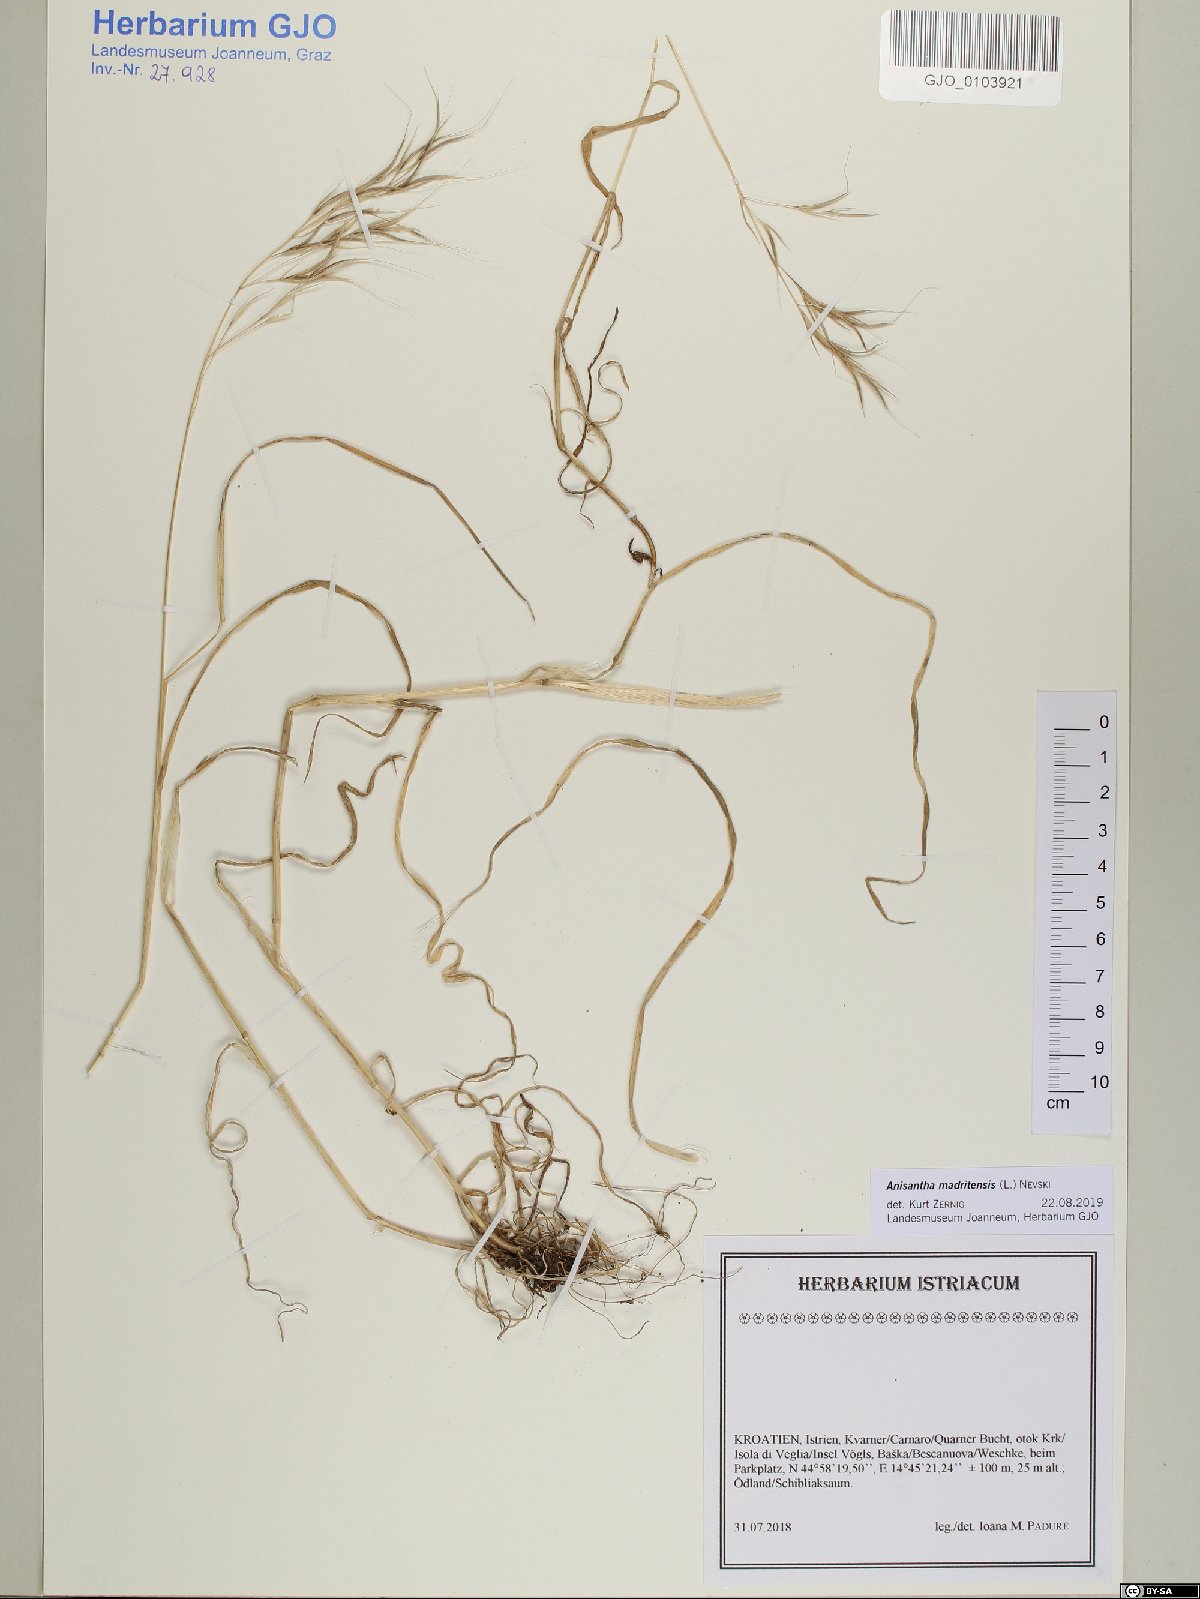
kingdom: Plantae
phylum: Tracheophyta
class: Liliopsida
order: Poales
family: Poaceae
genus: Bromus
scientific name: Bromus madritensis
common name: Compact brome
